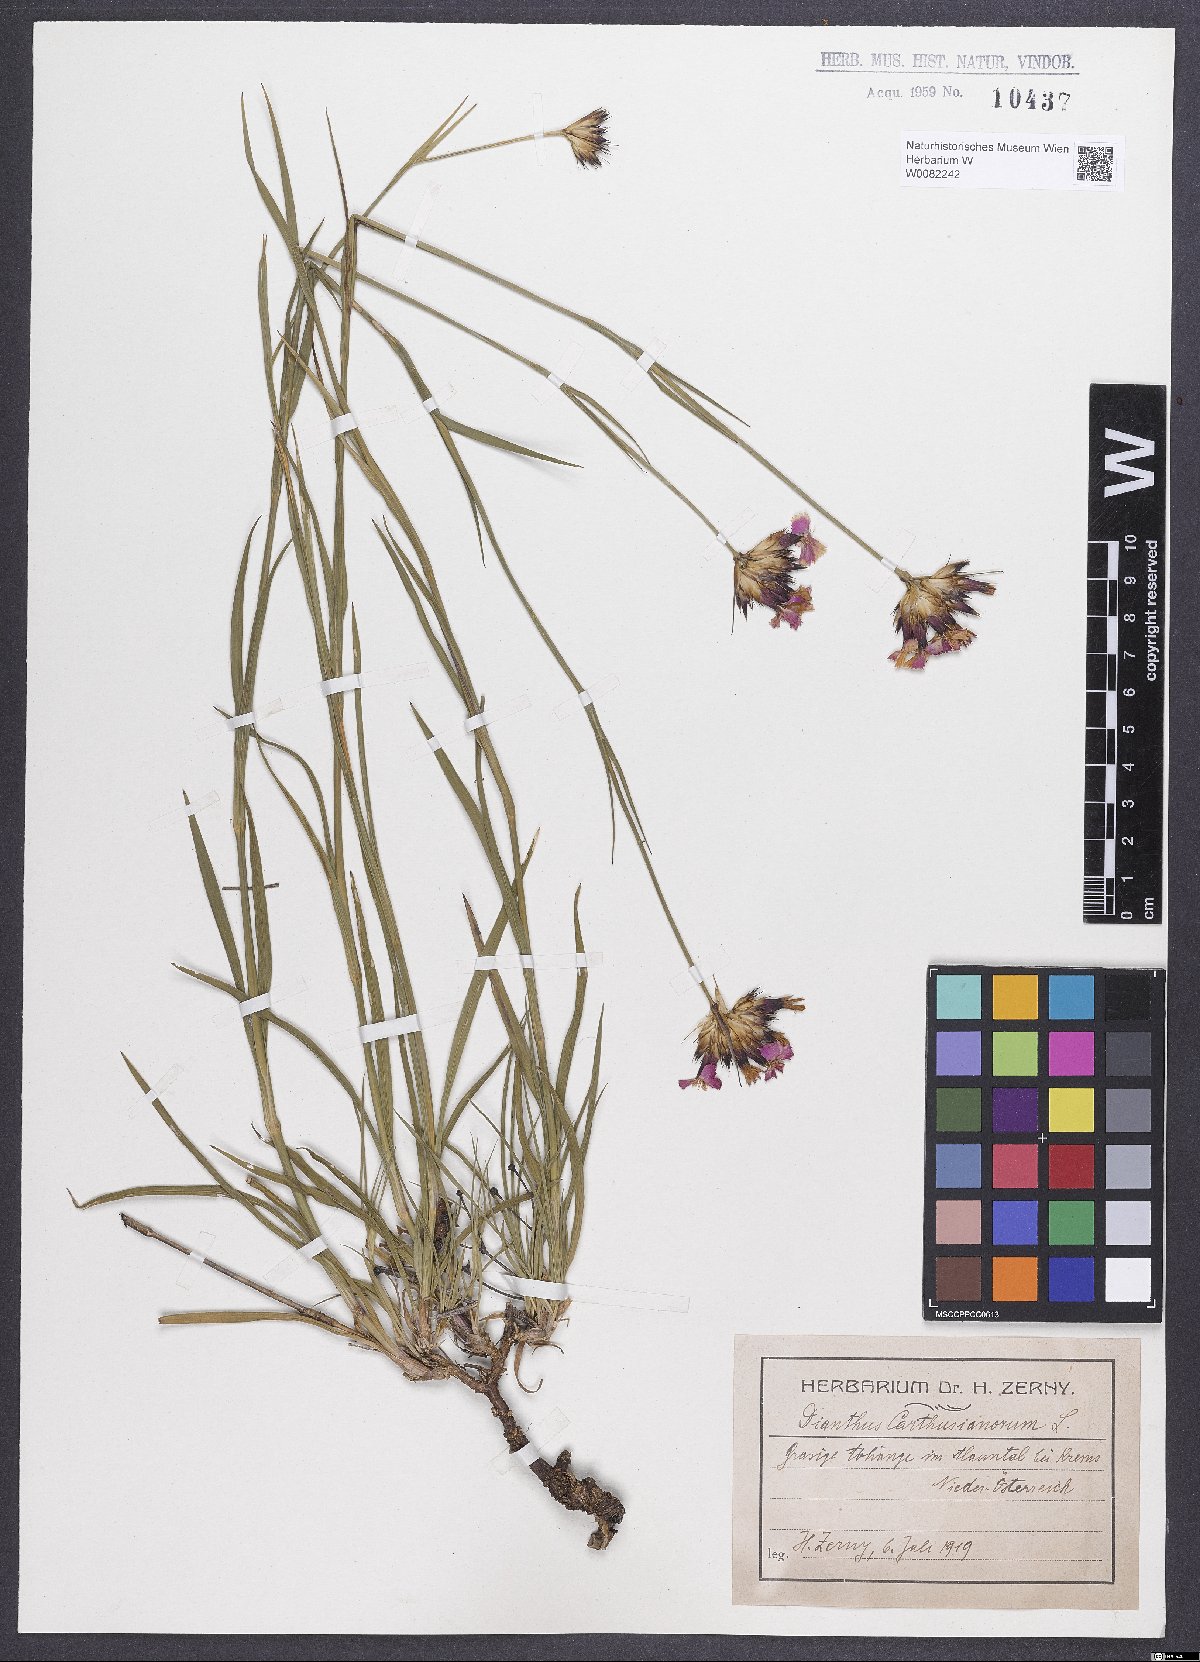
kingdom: Plantae
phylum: Tracheophyta
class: Magnoliopsida
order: Caryophyllales
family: Caryophyllaceae
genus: Dianthus
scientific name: Dianthus carthusianorum
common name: Carthusian pink
